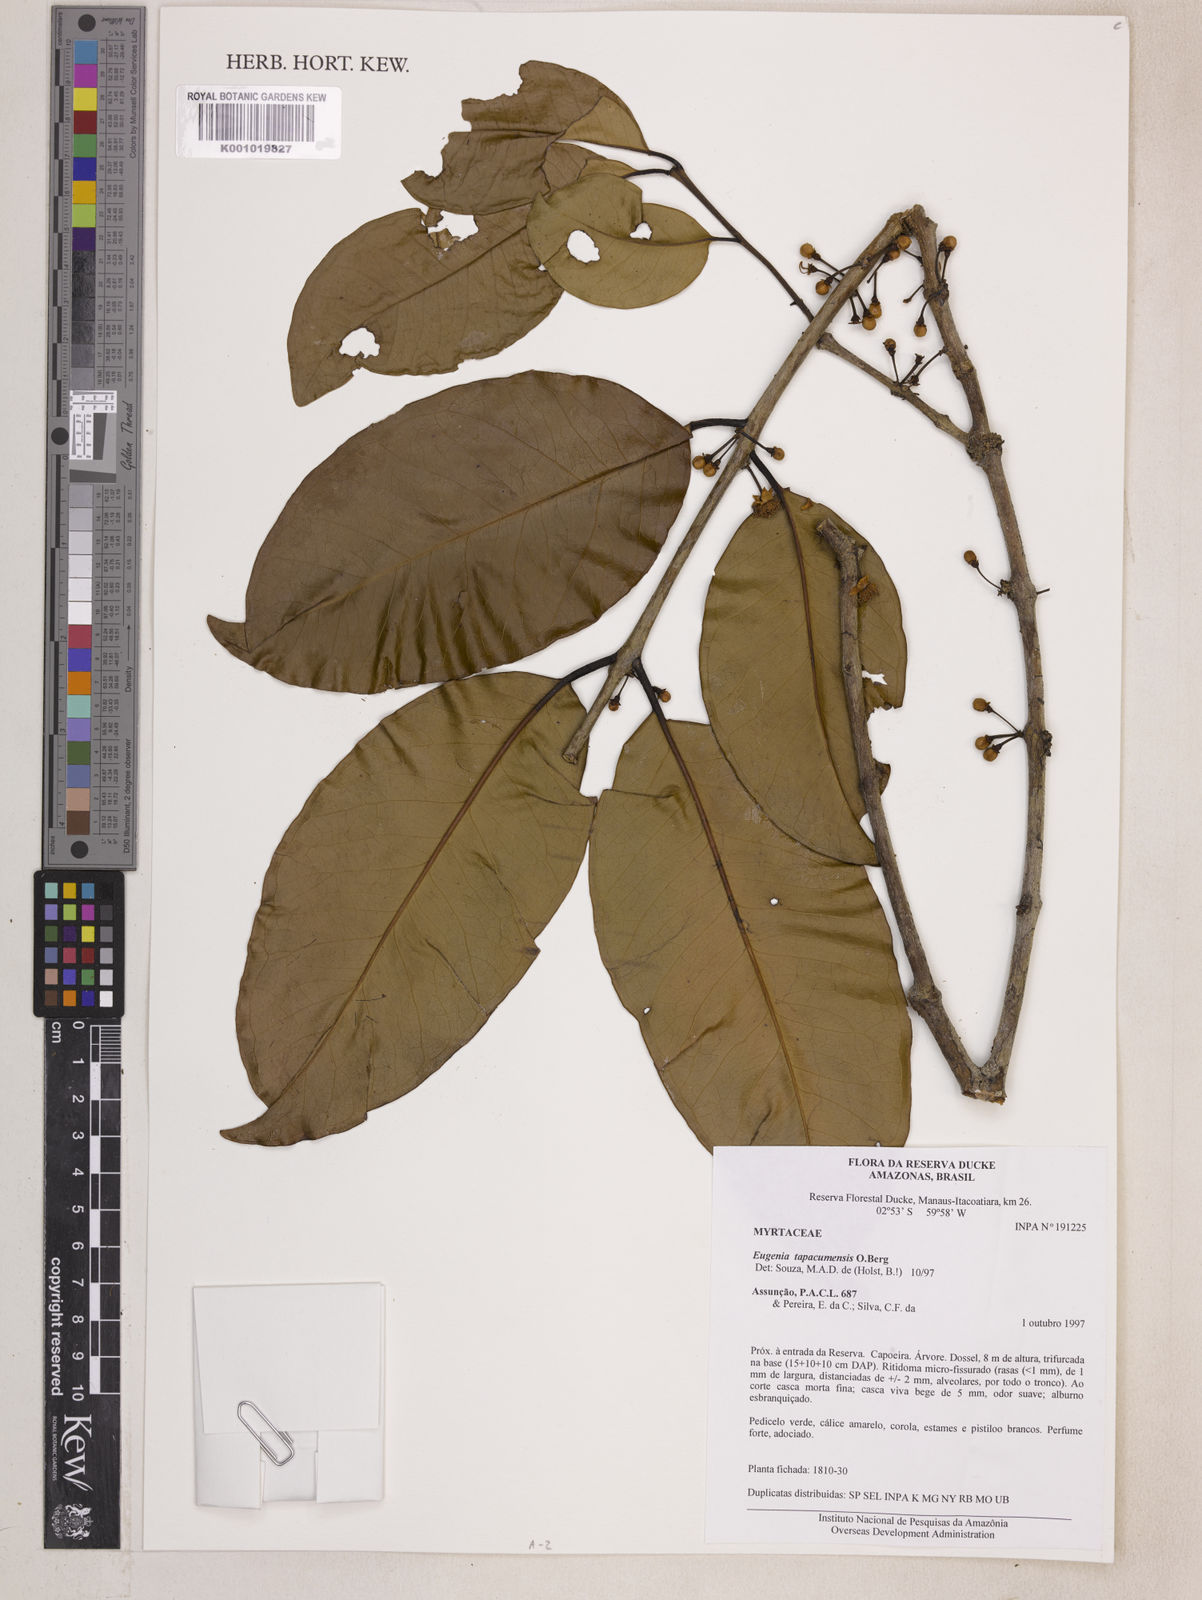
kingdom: Plantae
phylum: Tracheophyta
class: Magnoliopsida
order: Myrtales
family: Myrtaceae
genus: Eugenia
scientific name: Eugenia stictopetala
